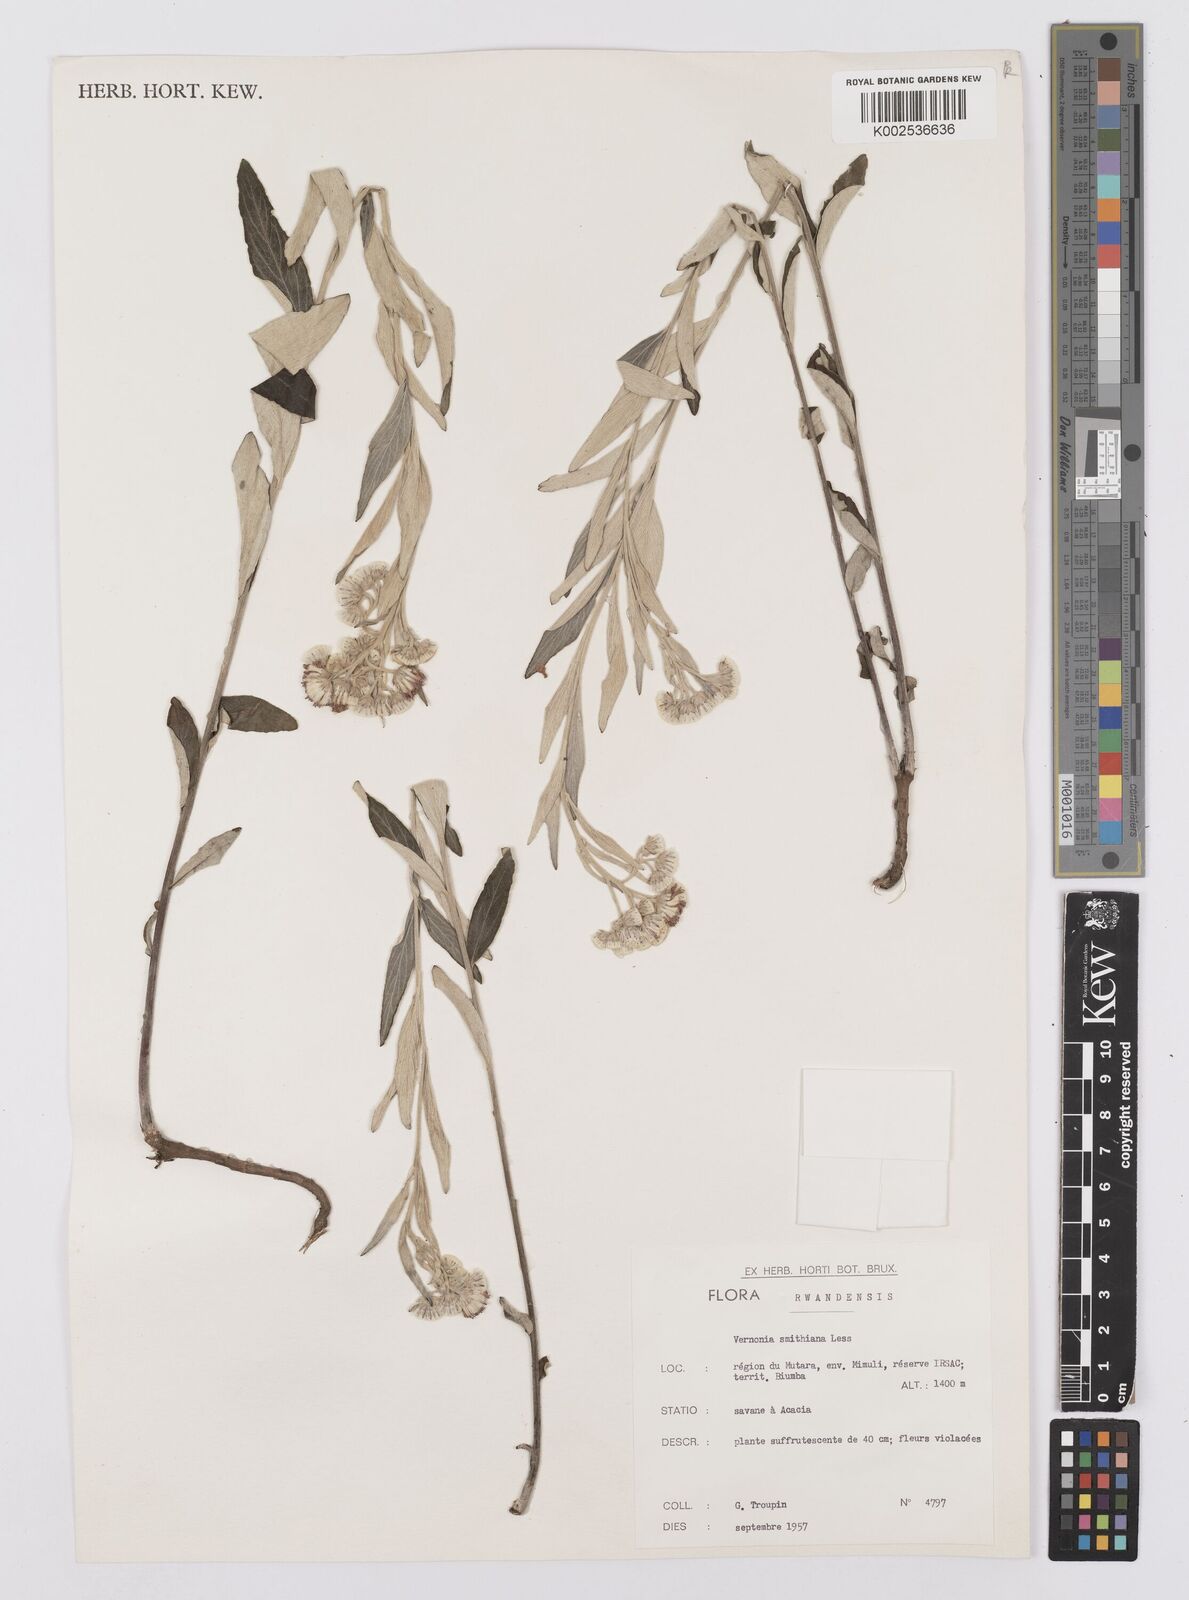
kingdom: Plantae
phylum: Tracheophyta
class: Magnoliopsida
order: Asterales
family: Asteraceae
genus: Hilliardiella
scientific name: Hilliardiella smithiana
